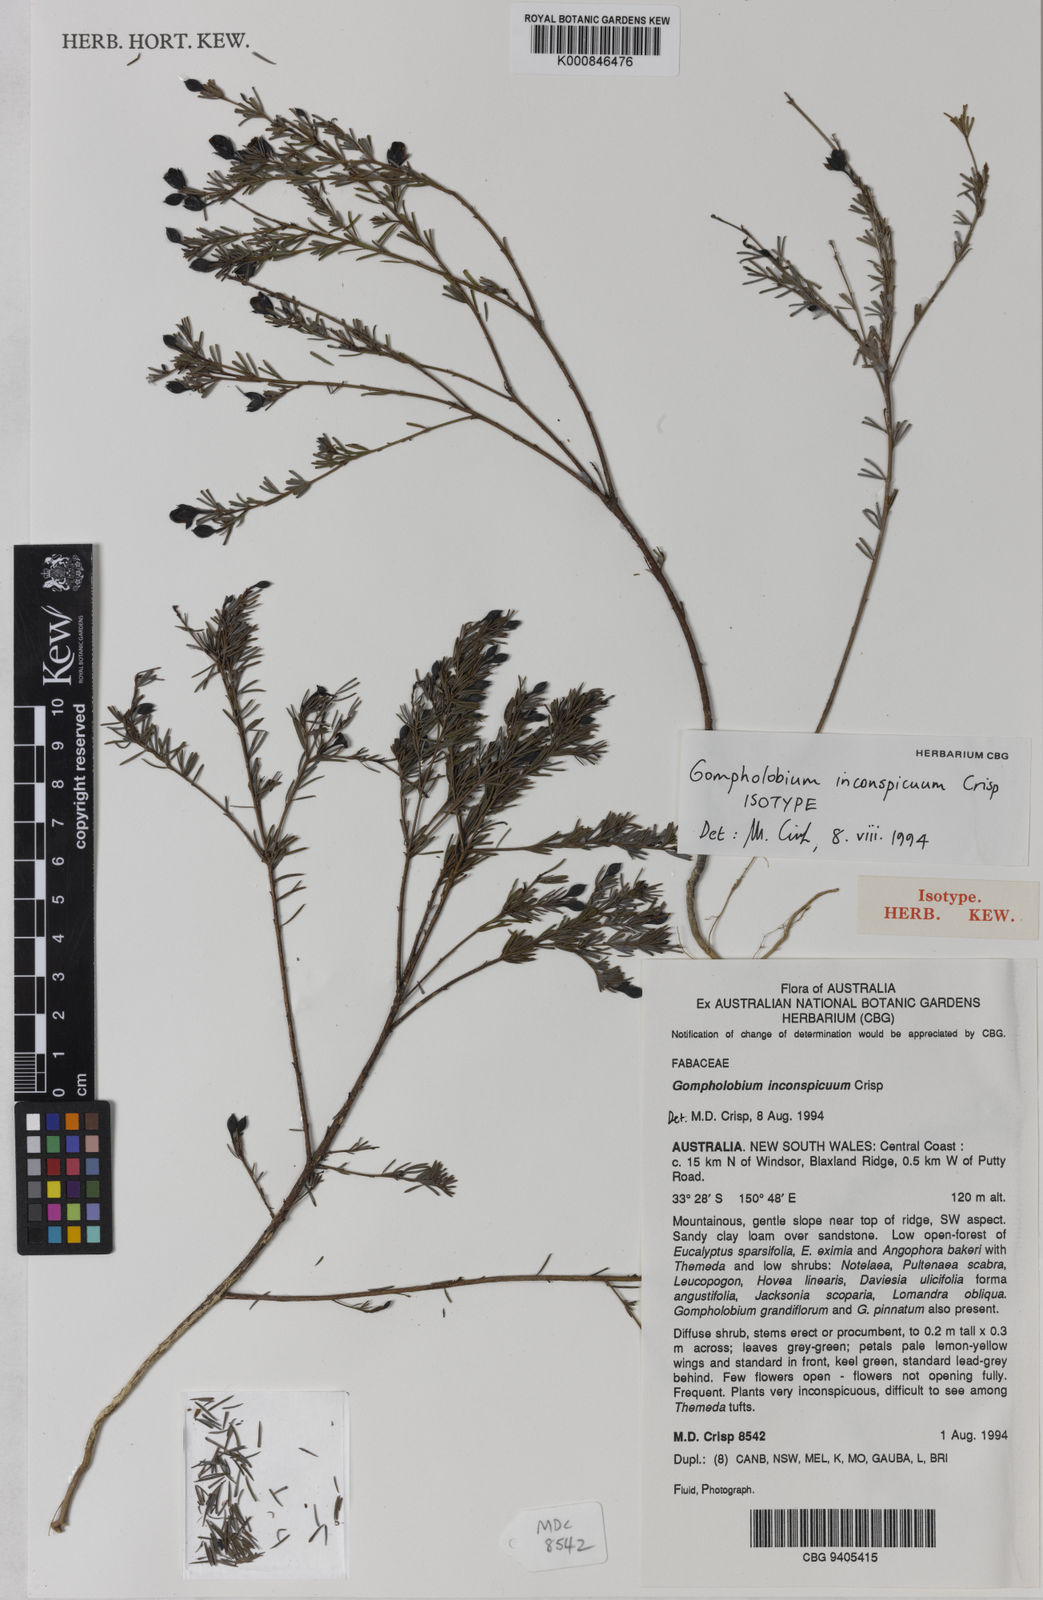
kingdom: Plantae
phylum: Tracheophyta
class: Magnoliopsida
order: Fabales
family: Fabaceae
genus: Gompholobium
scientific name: Gompholobium inconspicuum
